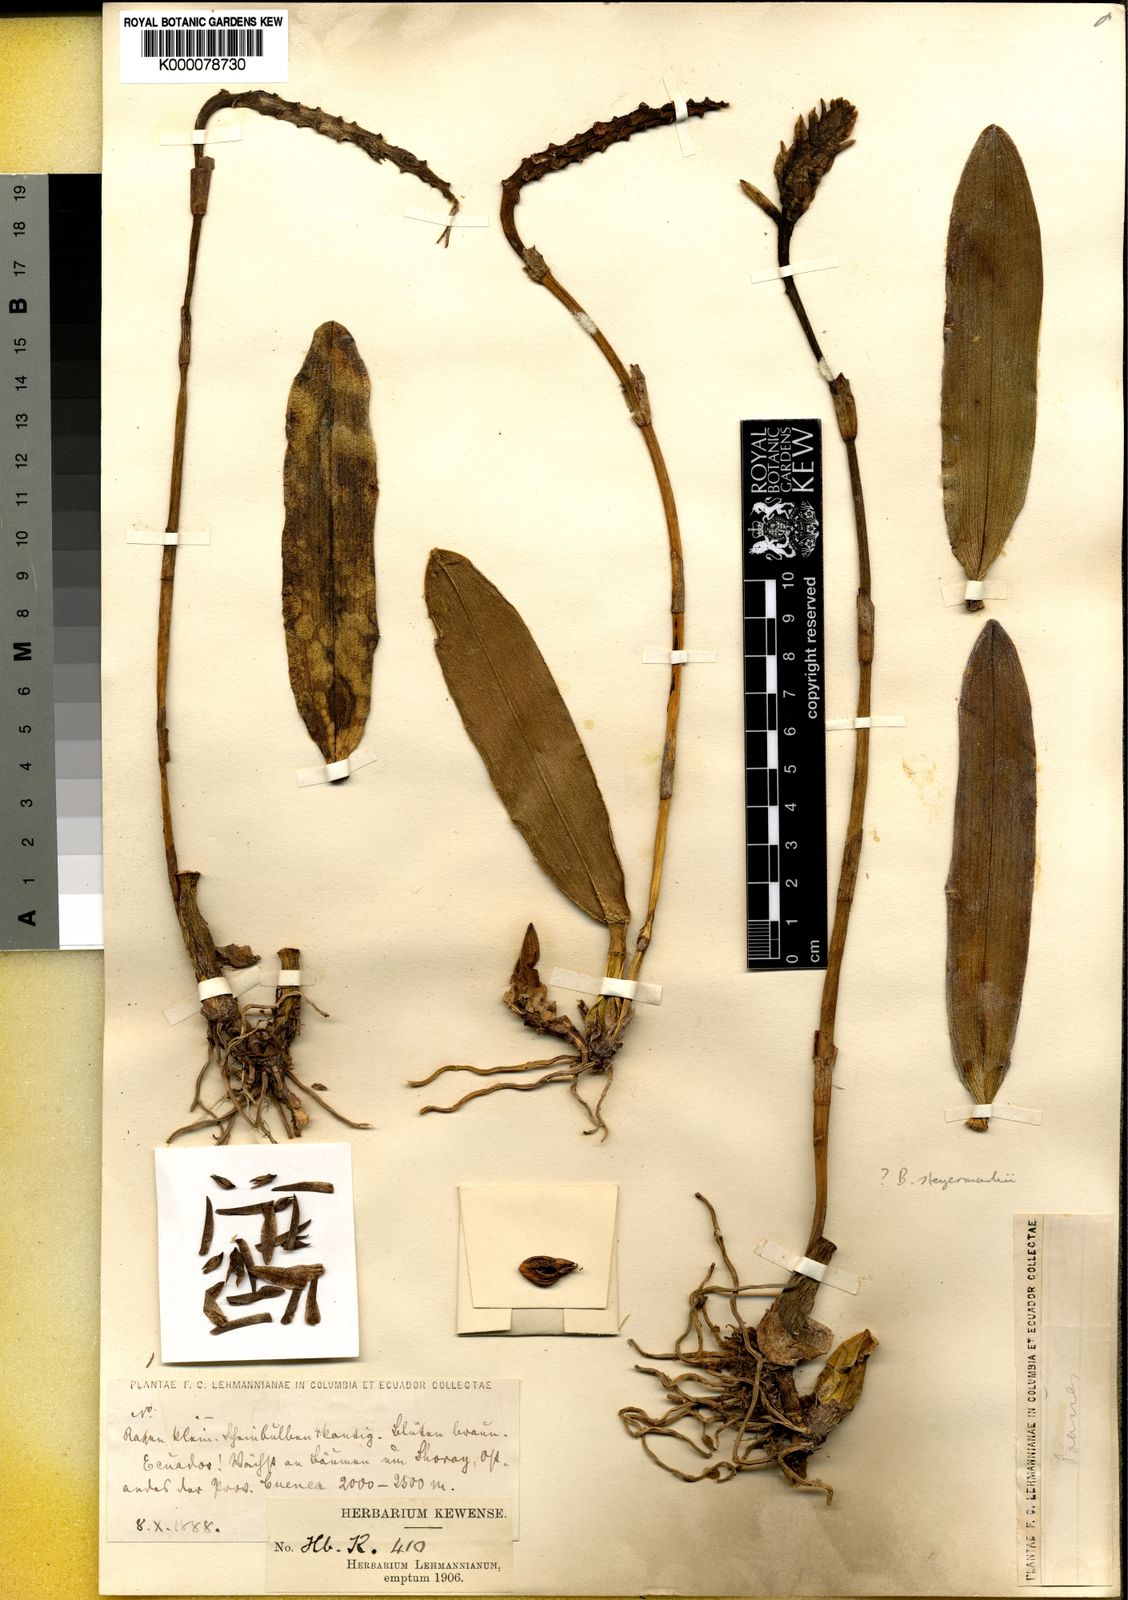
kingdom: Plantae
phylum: Tracheophyta
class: Liliopsida
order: Asparagales
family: Orchidaceae
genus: Bulbophyllum
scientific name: Bulbophyllum
